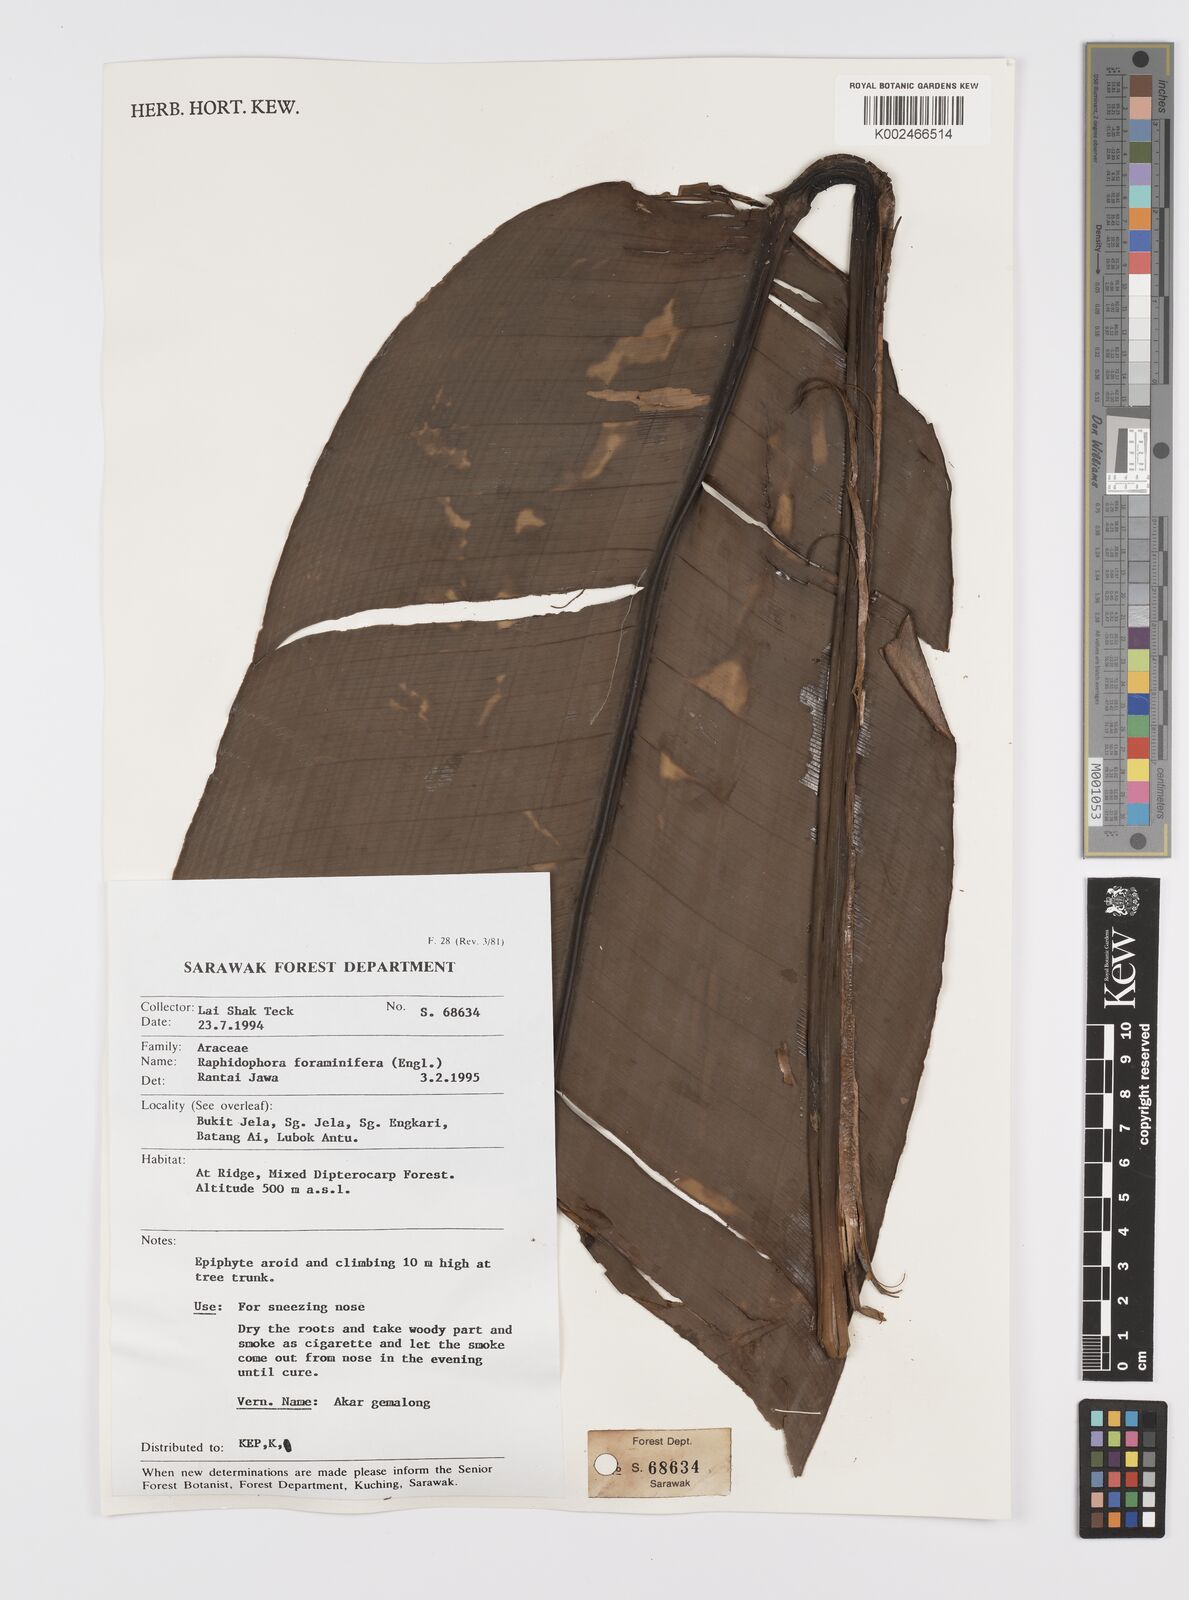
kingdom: Plantae
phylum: Tracheophyta
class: Liliopsida
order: Alismatales
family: Araceae
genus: Scindapsus
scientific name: Scindapsus glaucescens
